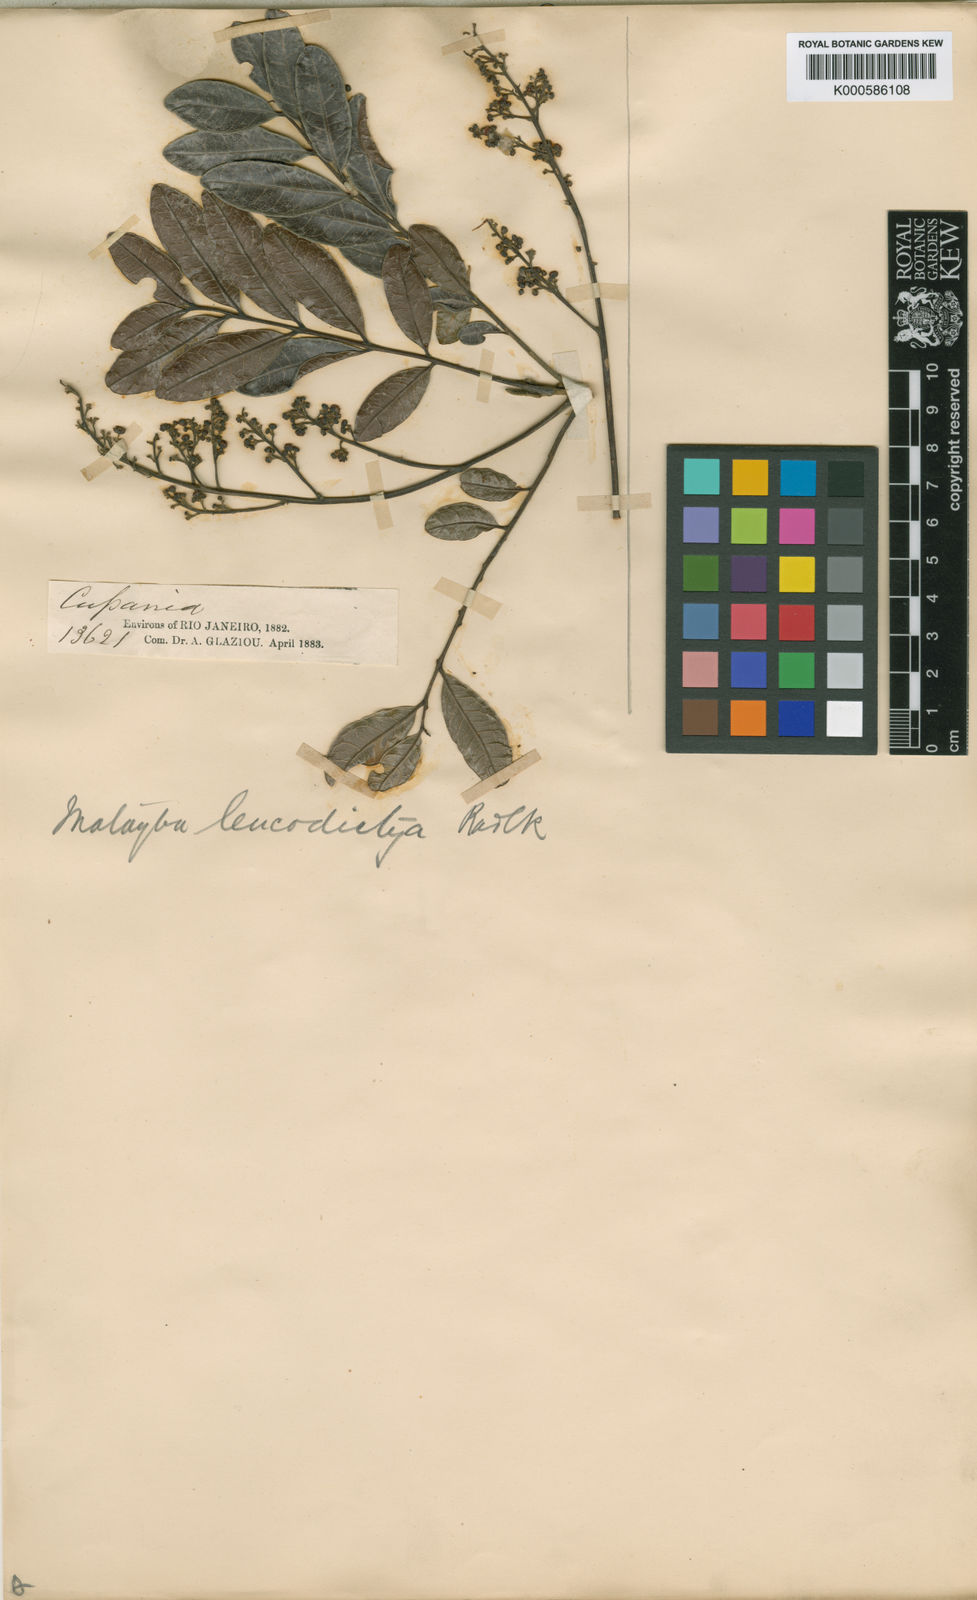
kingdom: Plantae
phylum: Tracheophyta
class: Magnoliopsida
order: Sapindales
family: Sapindaceae
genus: Matayba
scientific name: Matayba leucodictya
